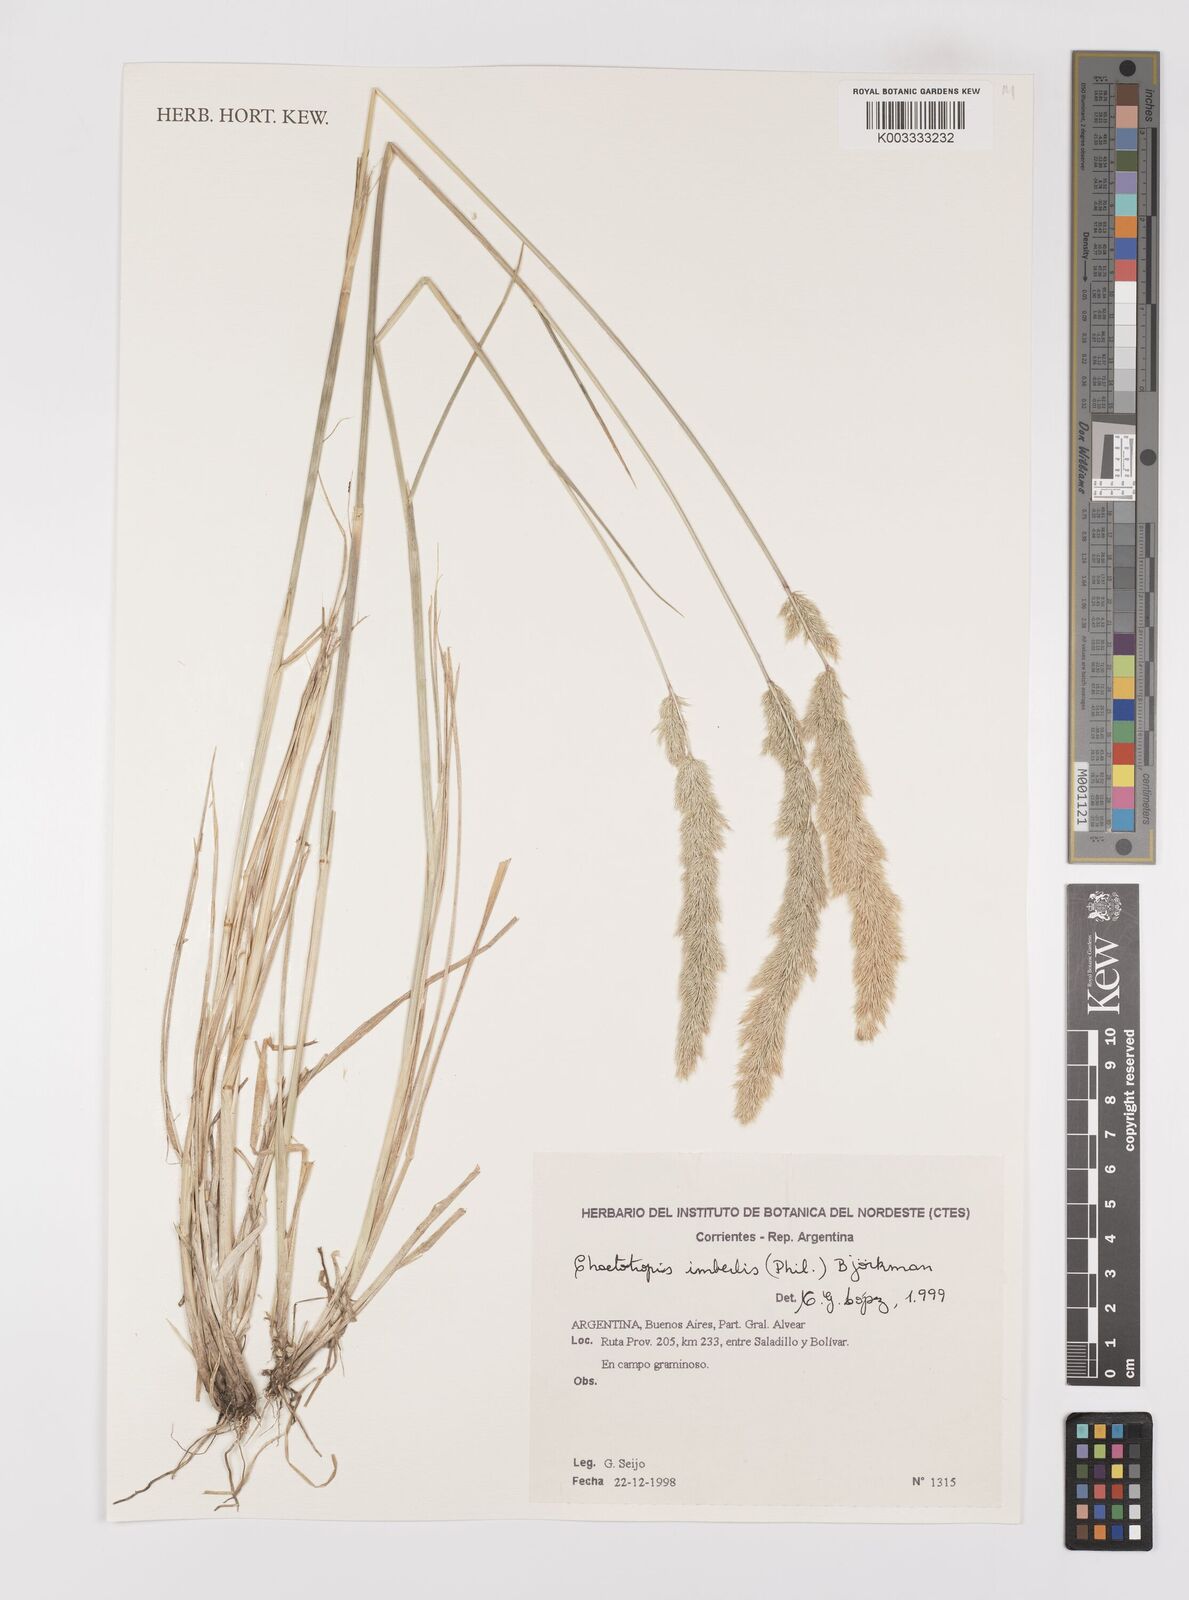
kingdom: Plantae
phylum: Tracheophyta
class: Liliopsida
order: Poales
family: Poaceae
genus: Polypogon
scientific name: Polypogon imberbis
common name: Beardless rabbitsfoot grass
